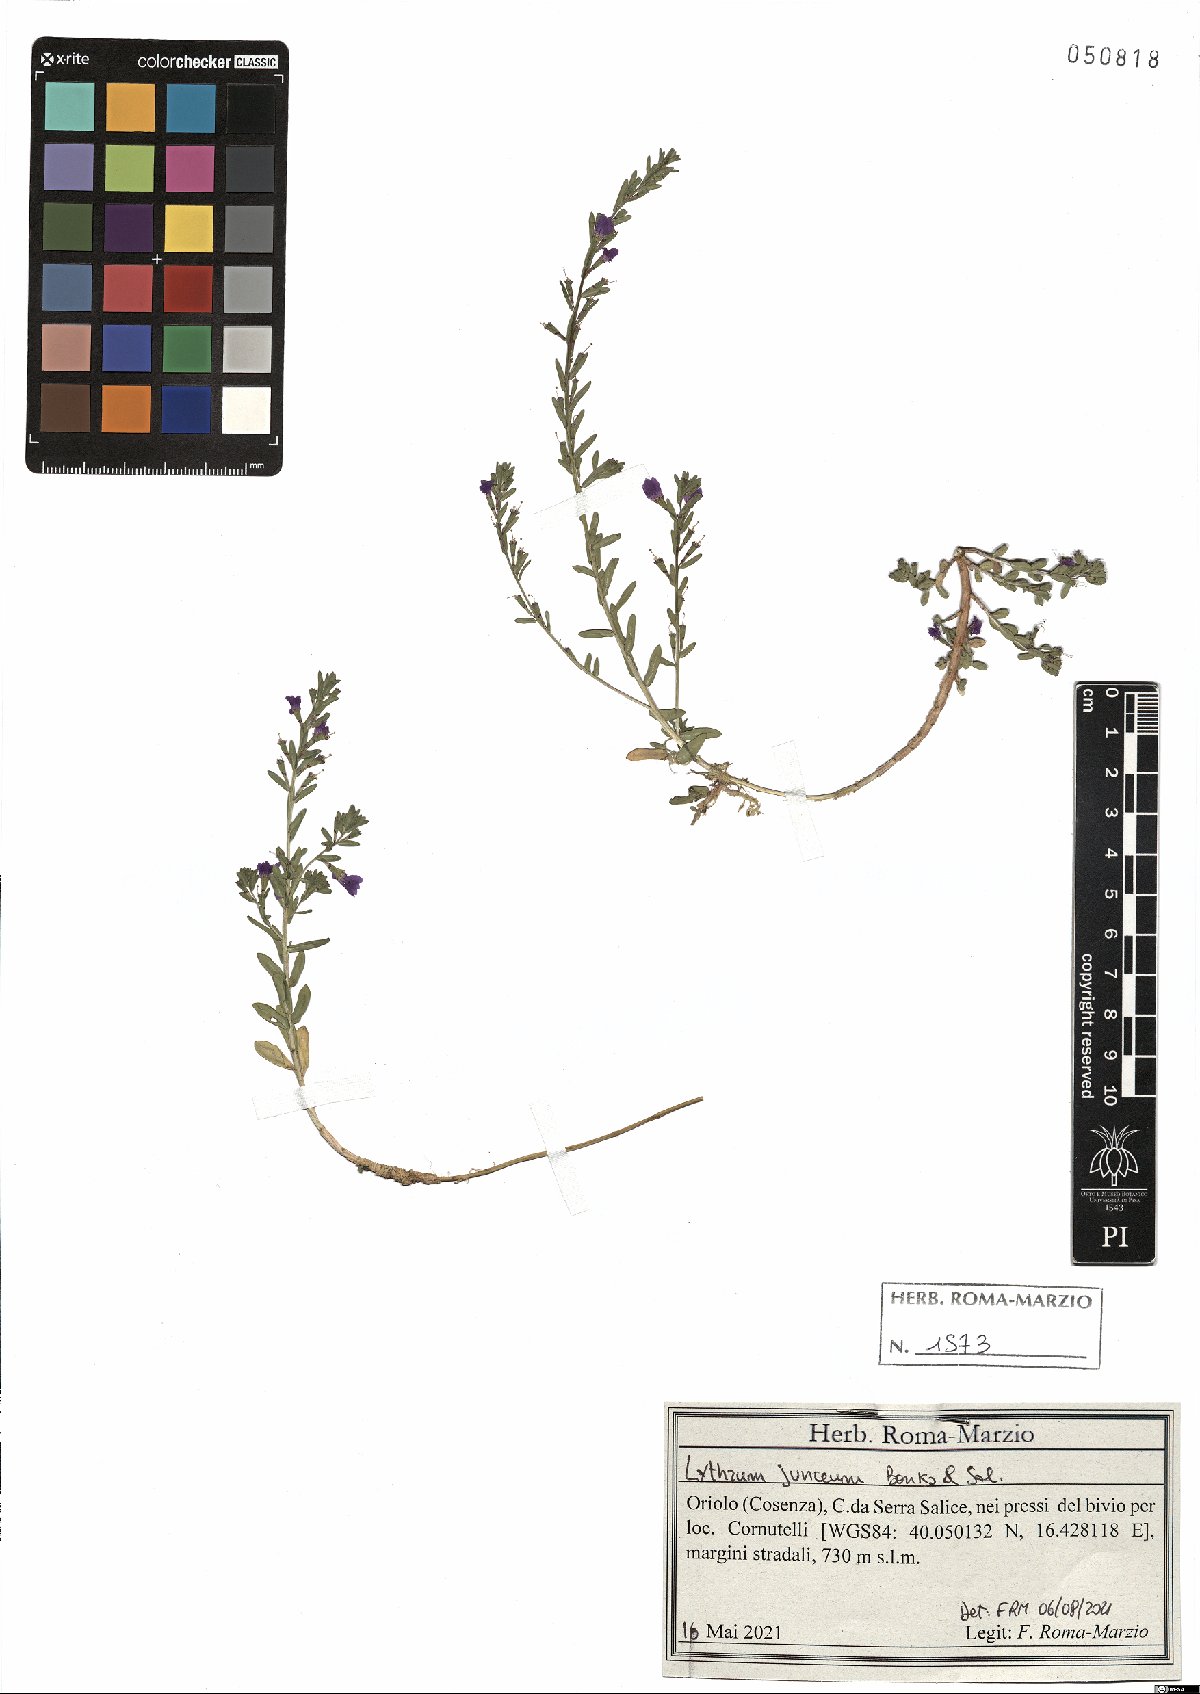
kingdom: Plantae
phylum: Tracheophyta
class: Magnoliopsida
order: Myrtales
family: Lythraceae
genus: Lythrum
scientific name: Lythrum junceum
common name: False grass-poly
